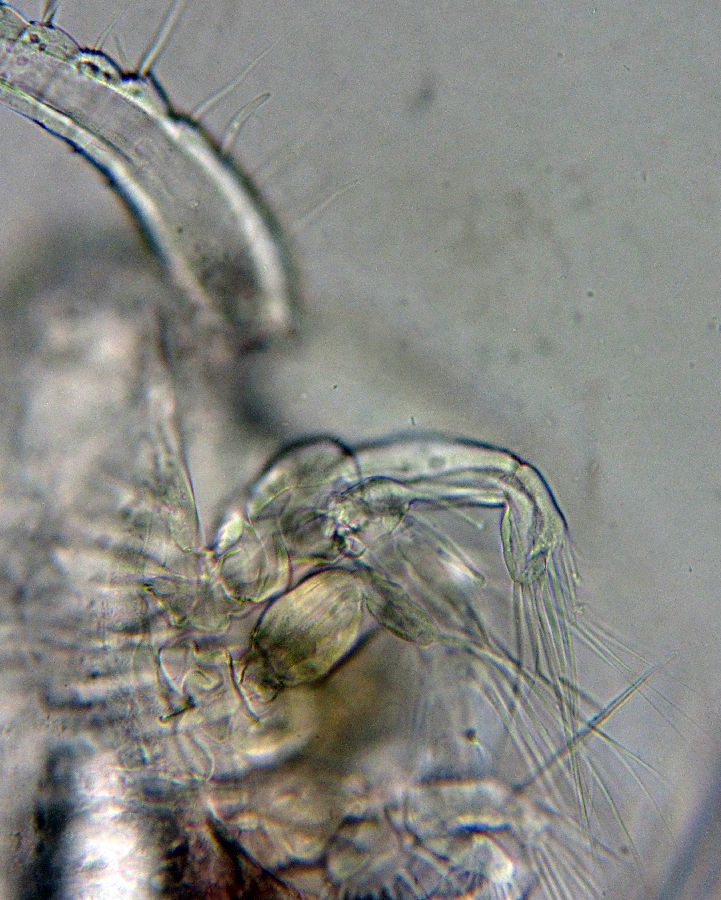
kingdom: Animalia
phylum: Arthropoda
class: Copepoda
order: Calanoida
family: Clausocalanidae
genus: Pseudocalanus
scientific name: Pseudocalanus minutus
